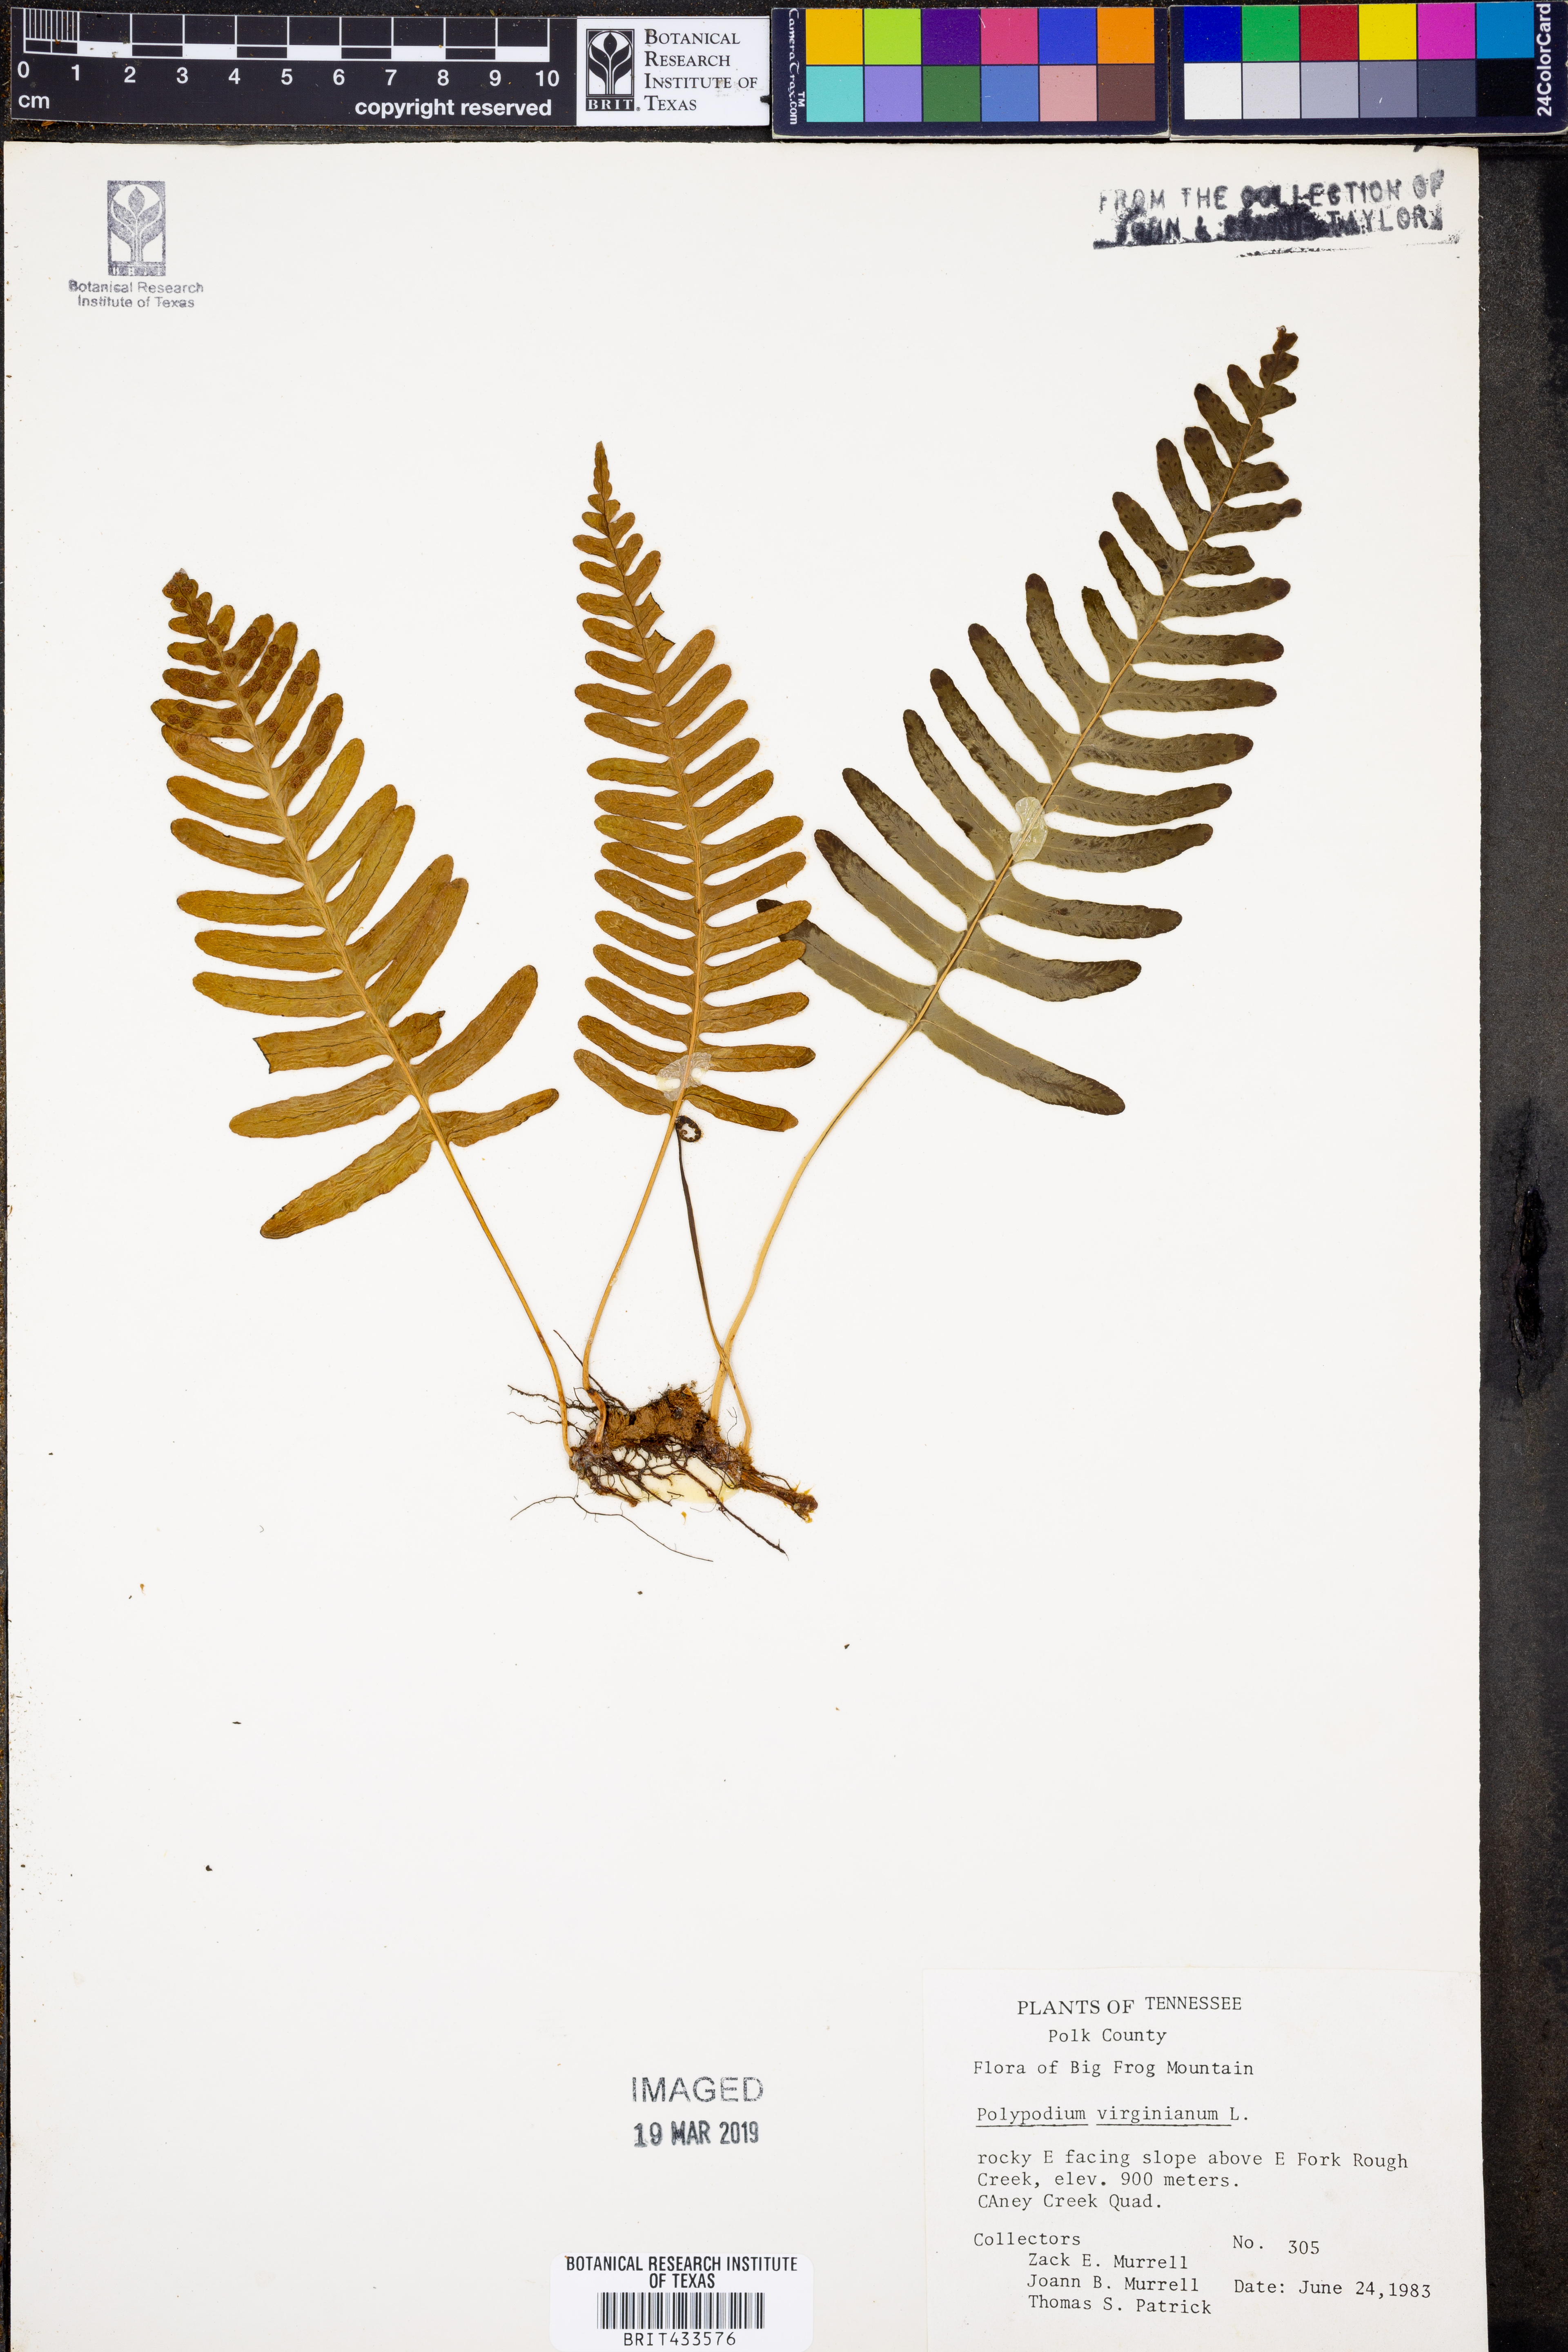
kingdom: Plantae
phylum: Tracheophyta
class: Polypodiopsida
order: Polypodiales
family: Polypodiaceae
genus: Polypodium
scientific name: Polypodium virginianum
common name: American wall fern
